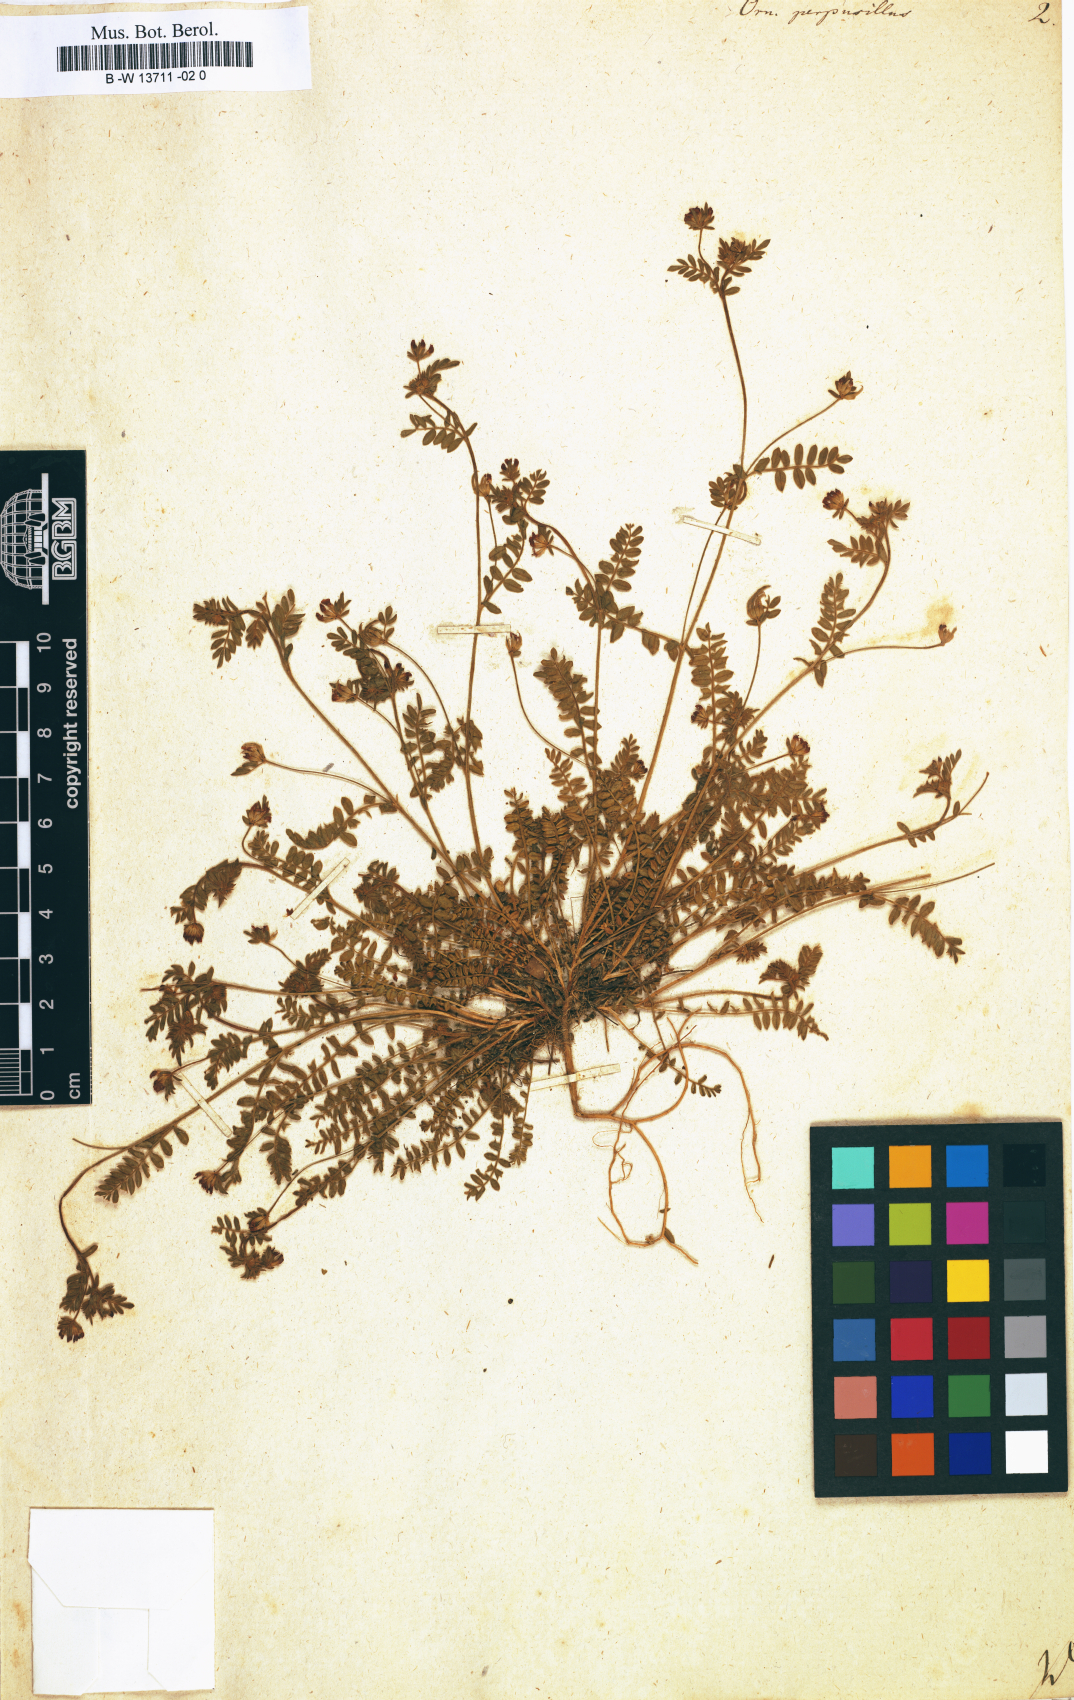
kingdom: Plantae
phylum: Tracheophyta
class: Magnoliopsida
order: Fabales
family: Fabaceae
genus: Ornithopus
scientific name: Ornithopus perpusillus
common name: Bird's-foot
